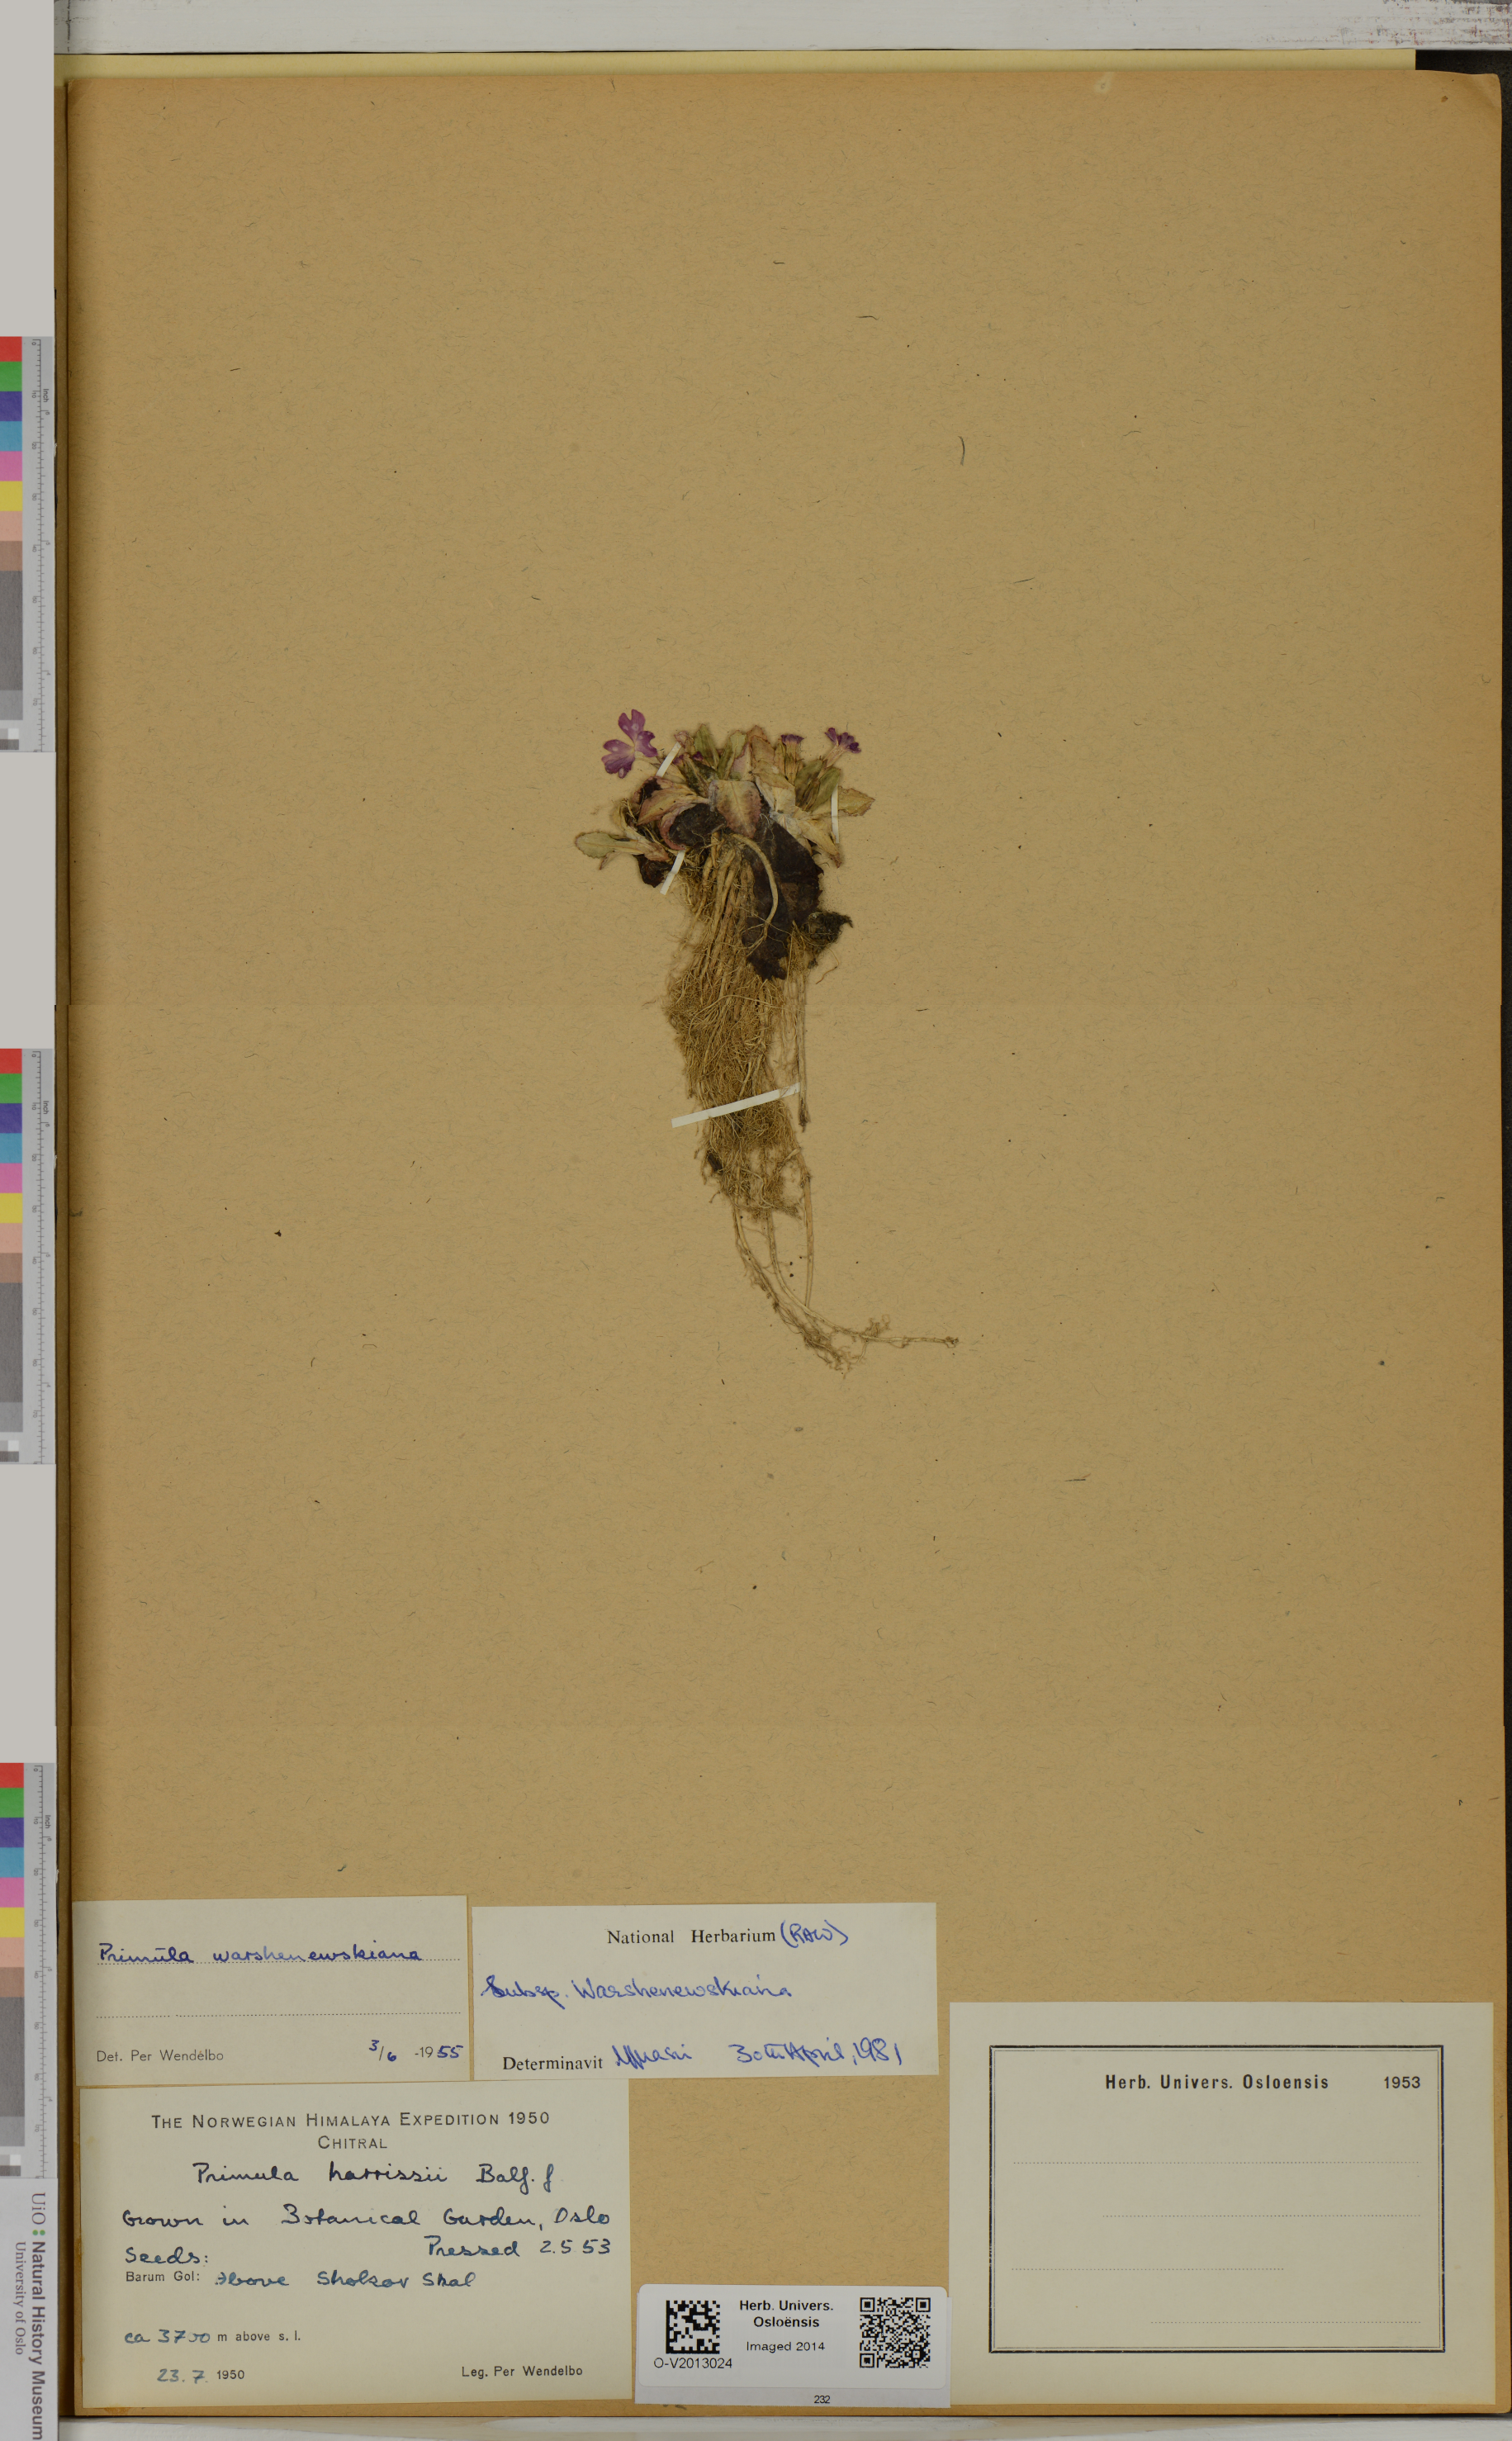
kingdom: Plantae
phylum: Tracheophyta
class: Magnoliopsida
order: Ericales
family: Primulaceae
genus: Primula
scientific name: Primula warshenewskiana
